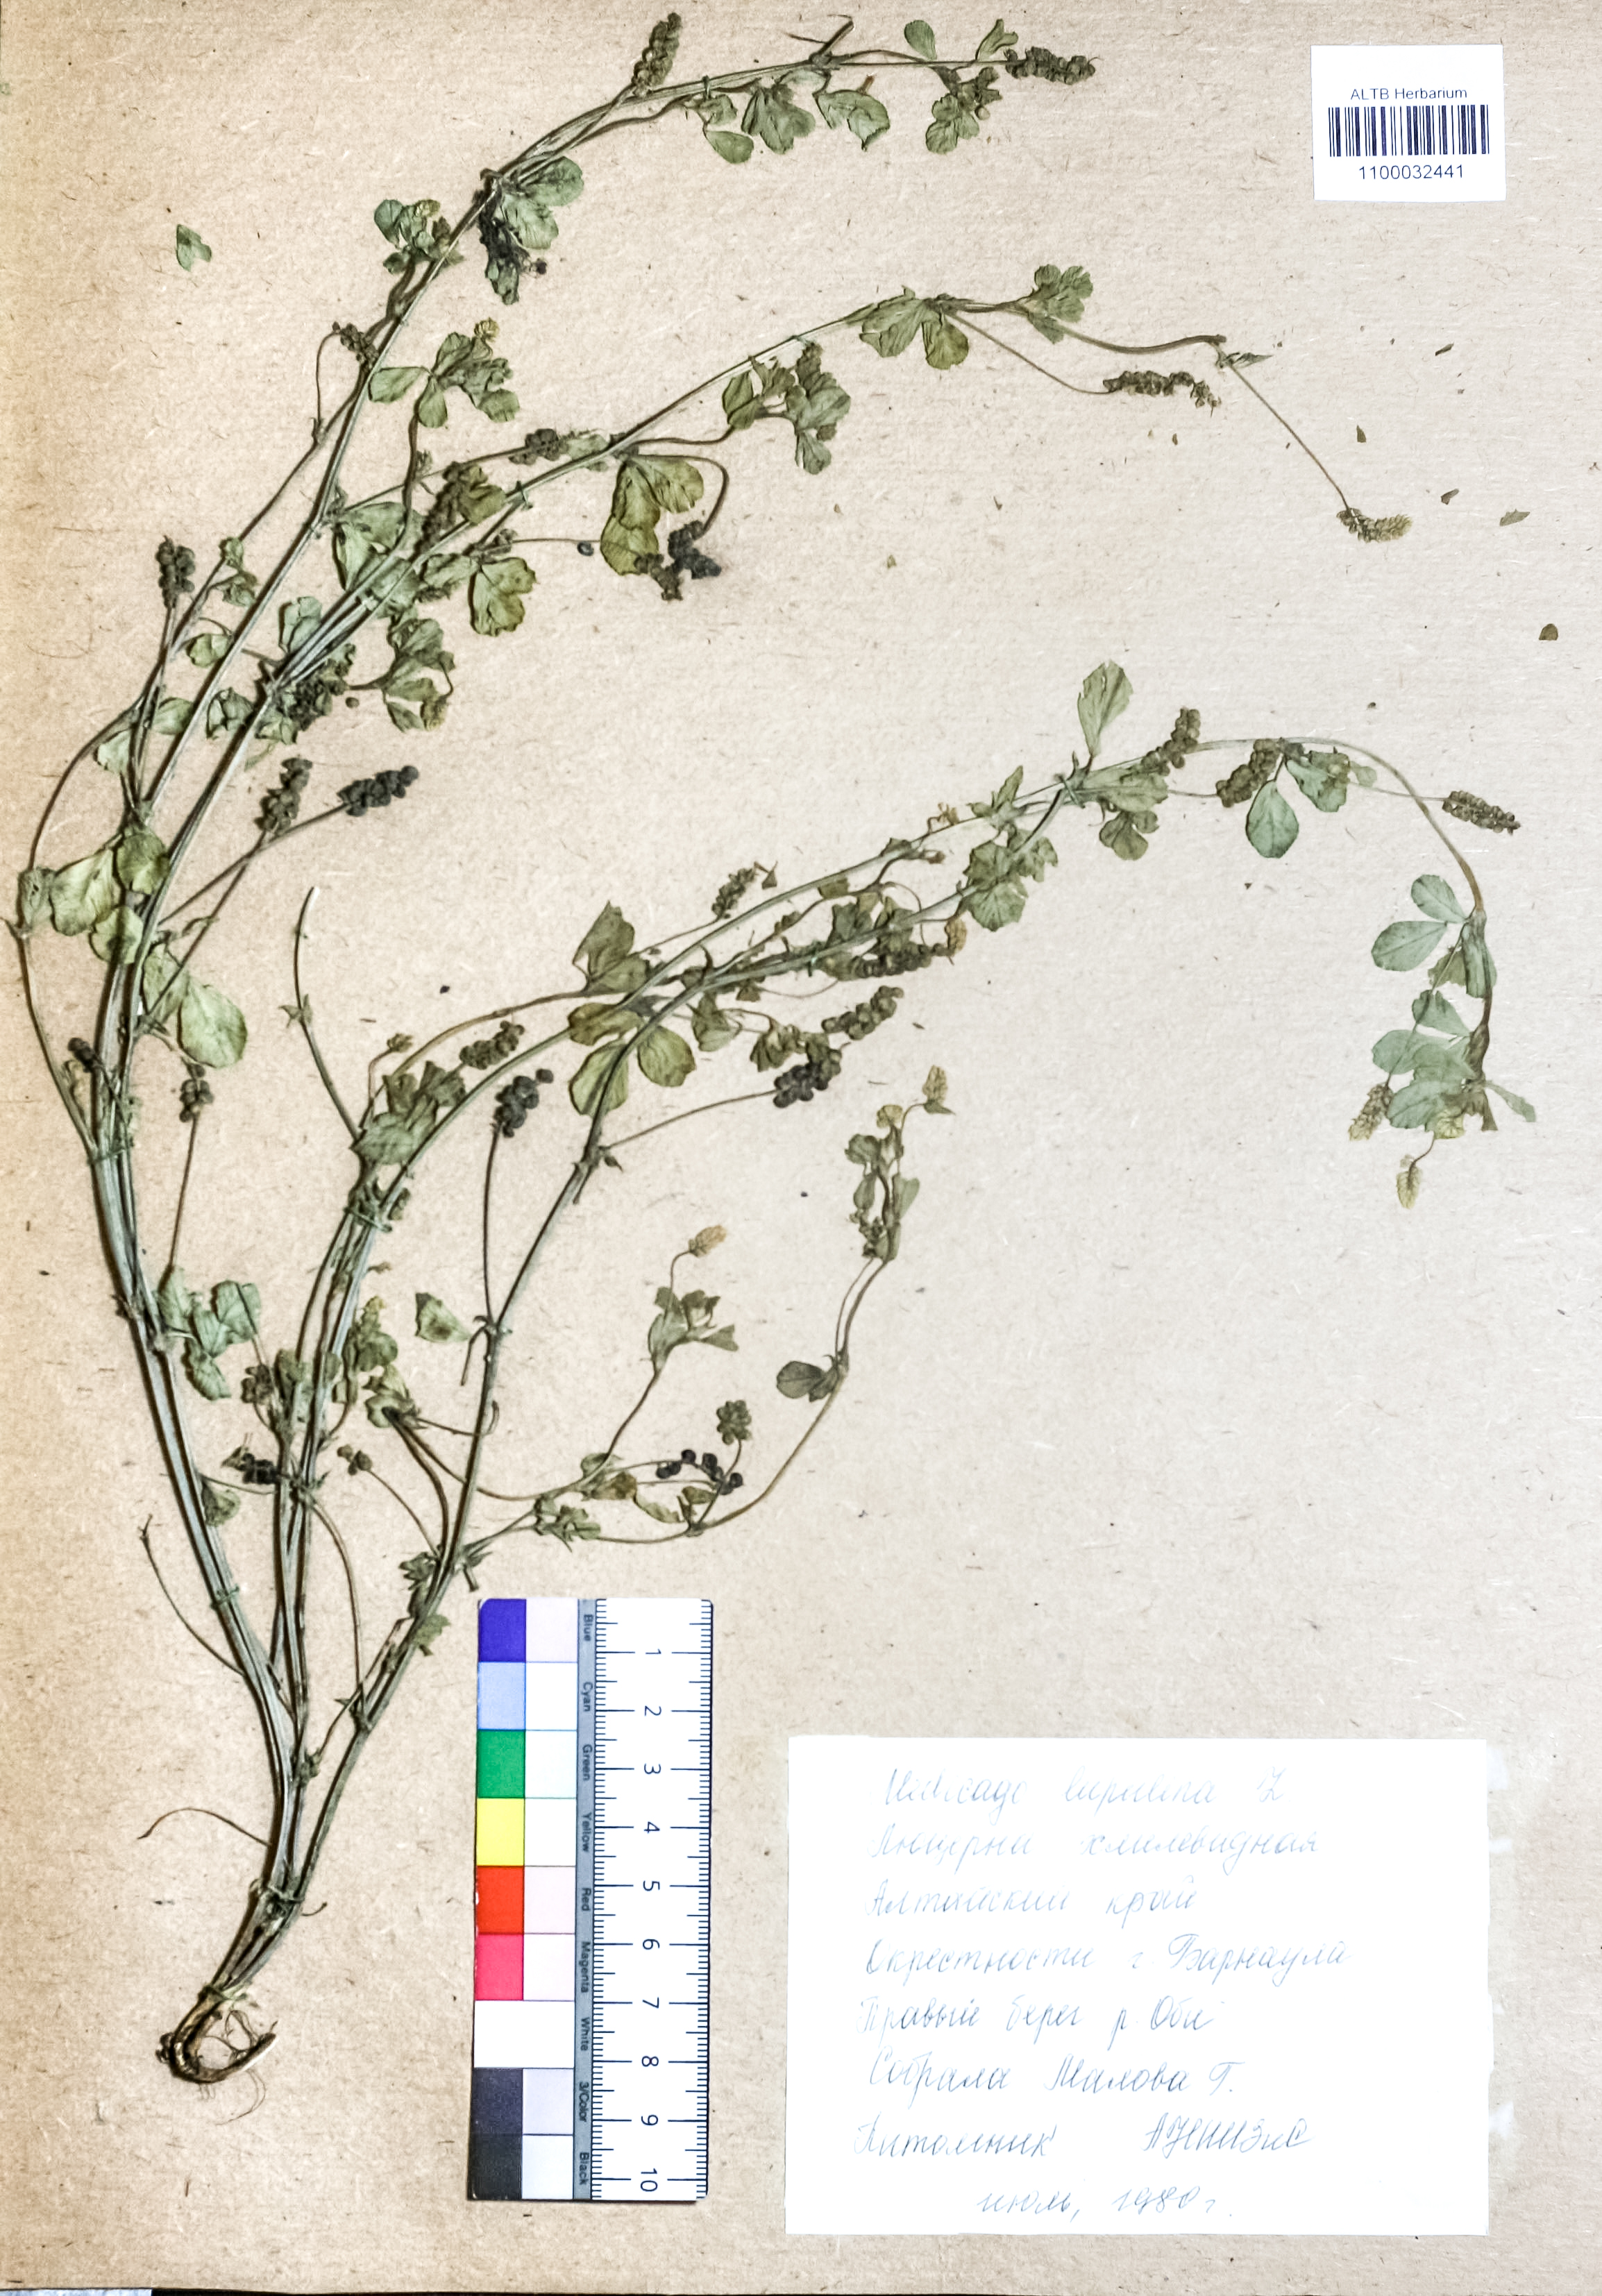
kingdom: Plantae
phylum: Tracheophyta
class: Magnoliopsida
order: Fabales
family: Fabaceae
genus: Medicago
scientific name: Medicago lupulina
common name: Black medick
